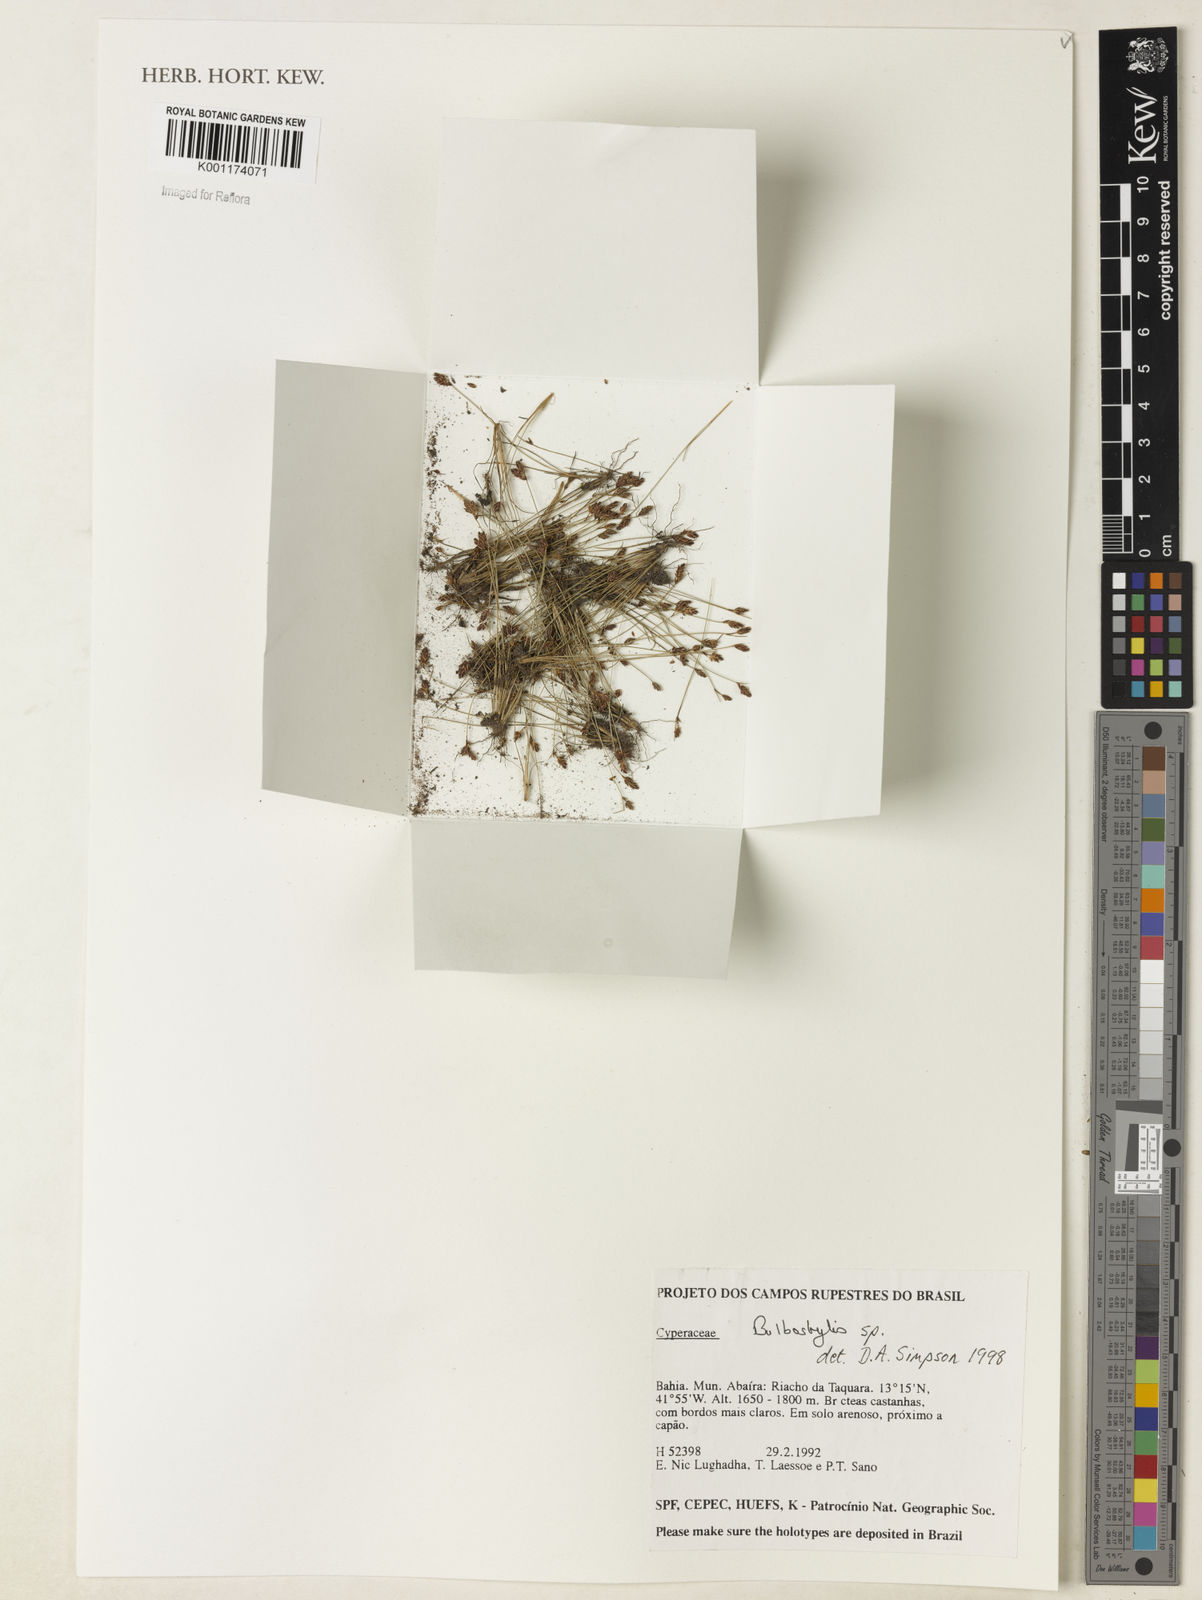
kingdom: Plantae
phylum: Tracheophyta
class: Liliopsida
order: Poales
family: Cyperaceae
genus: Bulbostylis
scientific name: Bulbostylis
